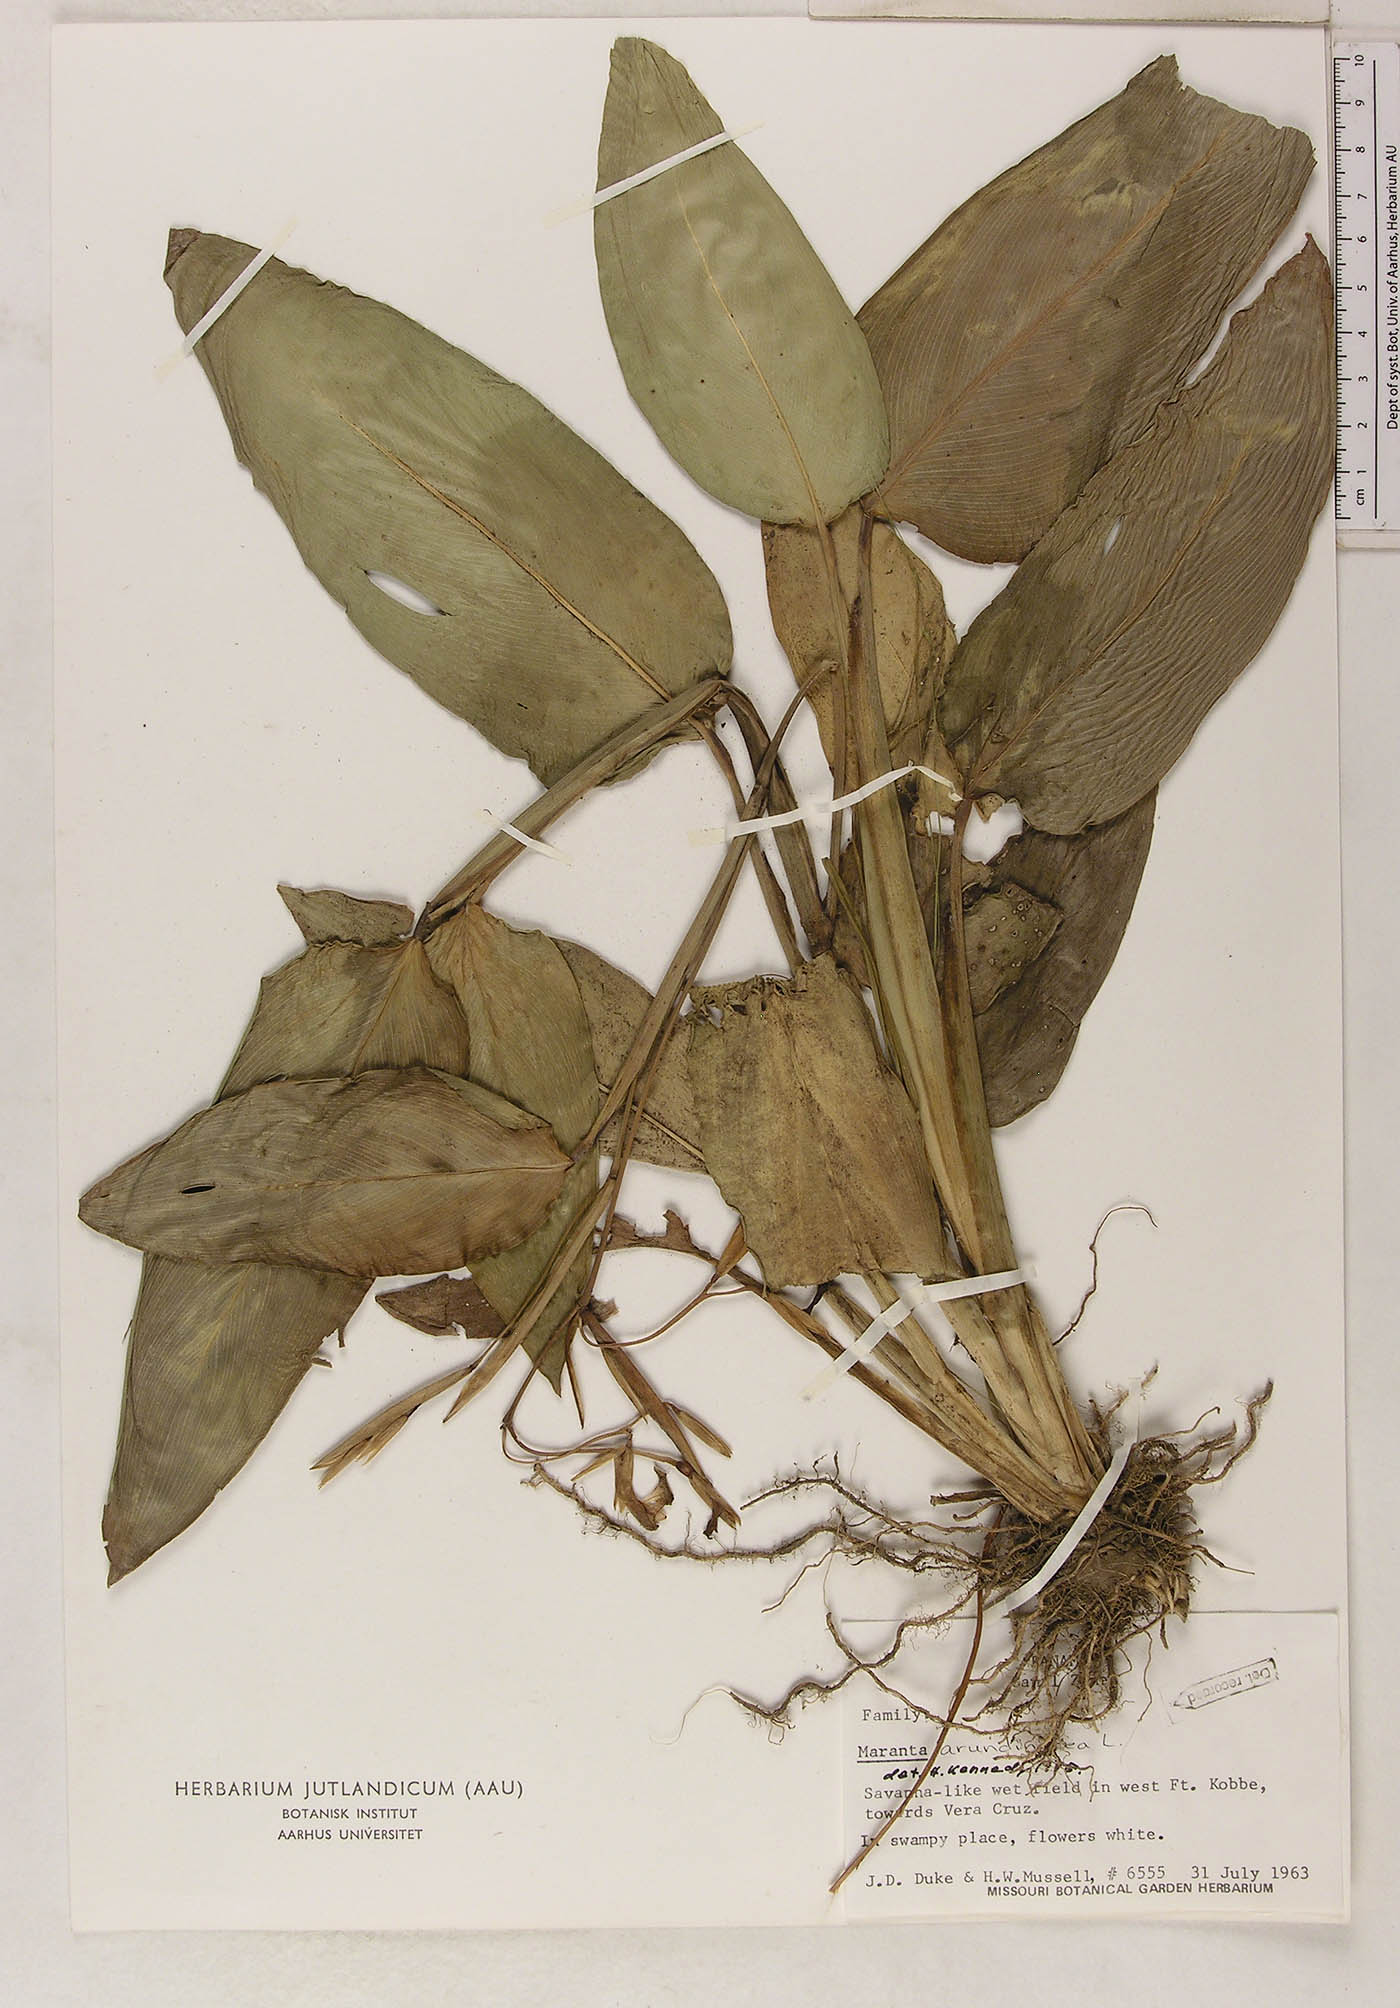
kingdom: Plantae
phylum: Tracheophyta
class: Liliopsida
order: Zingiberales
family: Marantaceae
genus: Maranta
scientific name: Maranta arundinacea
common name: Arrowroot
